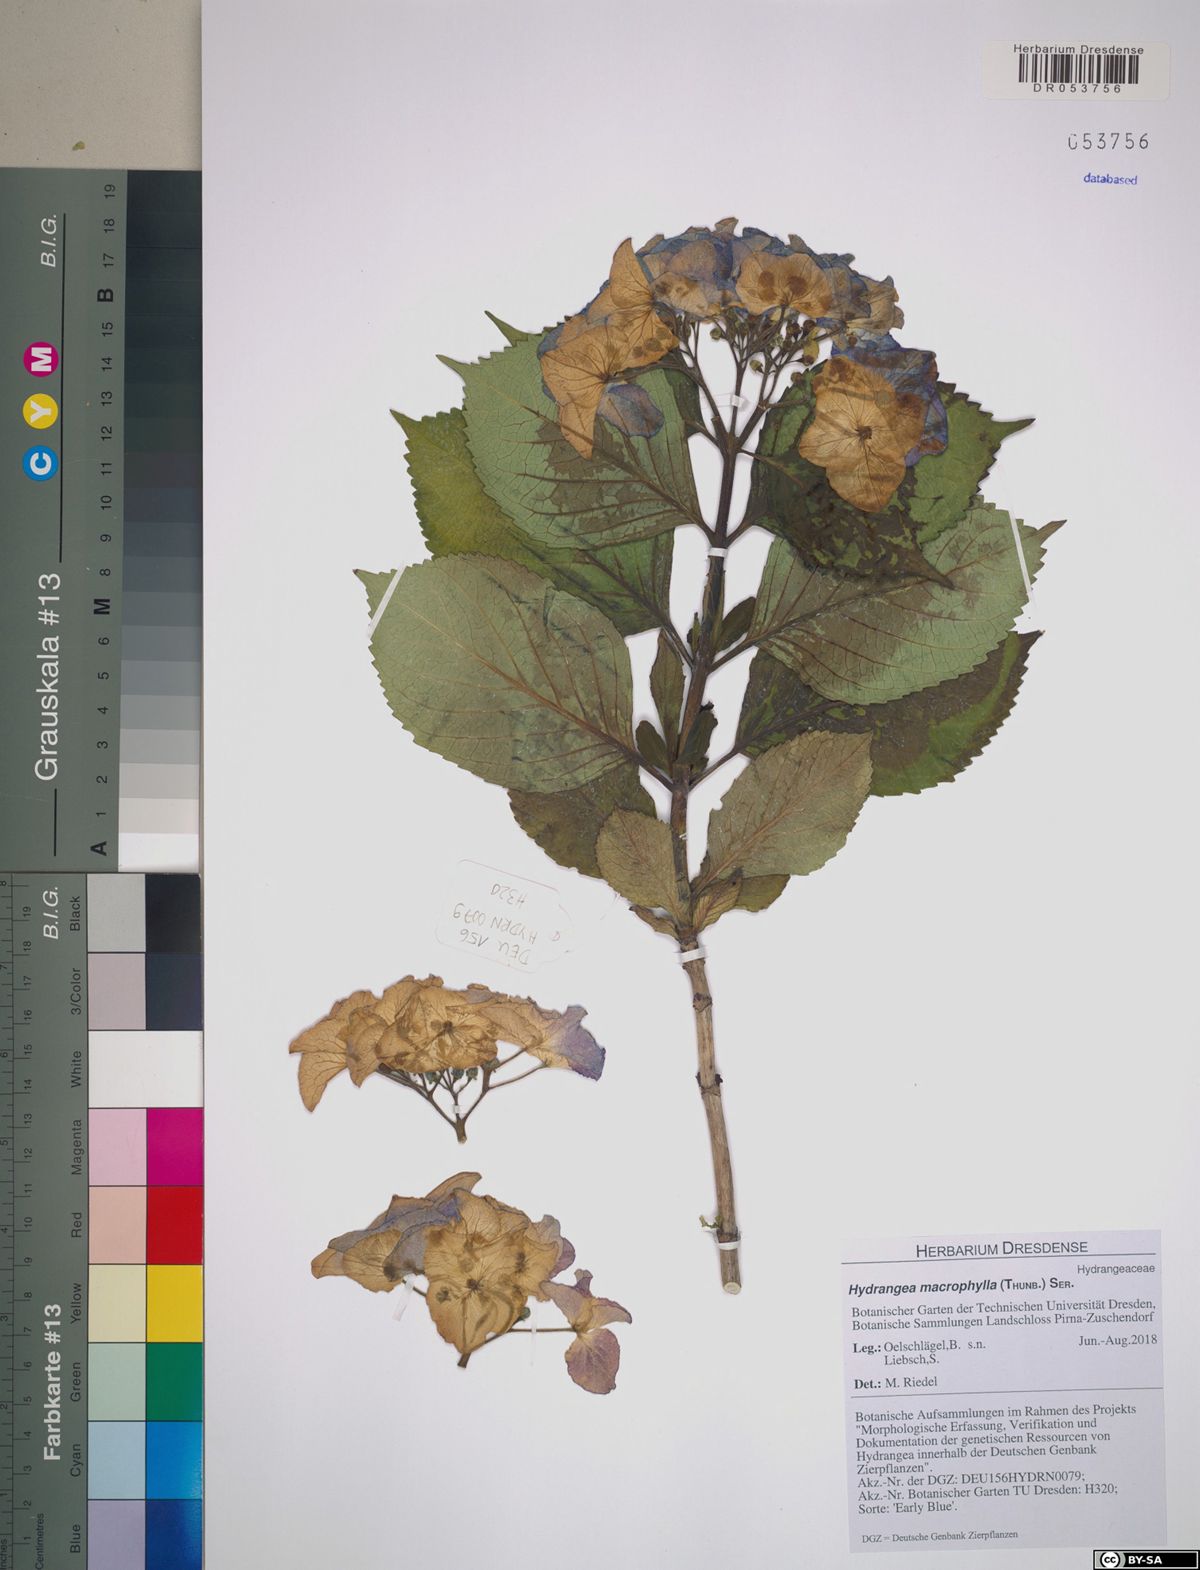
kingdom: Plantae
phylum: Tracheophyta
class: Magnoliopsida
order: Cornales
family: Hydrangeaceae
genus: Hydrangea
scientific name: Hydrangea macrophylla
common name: Hydrangea
